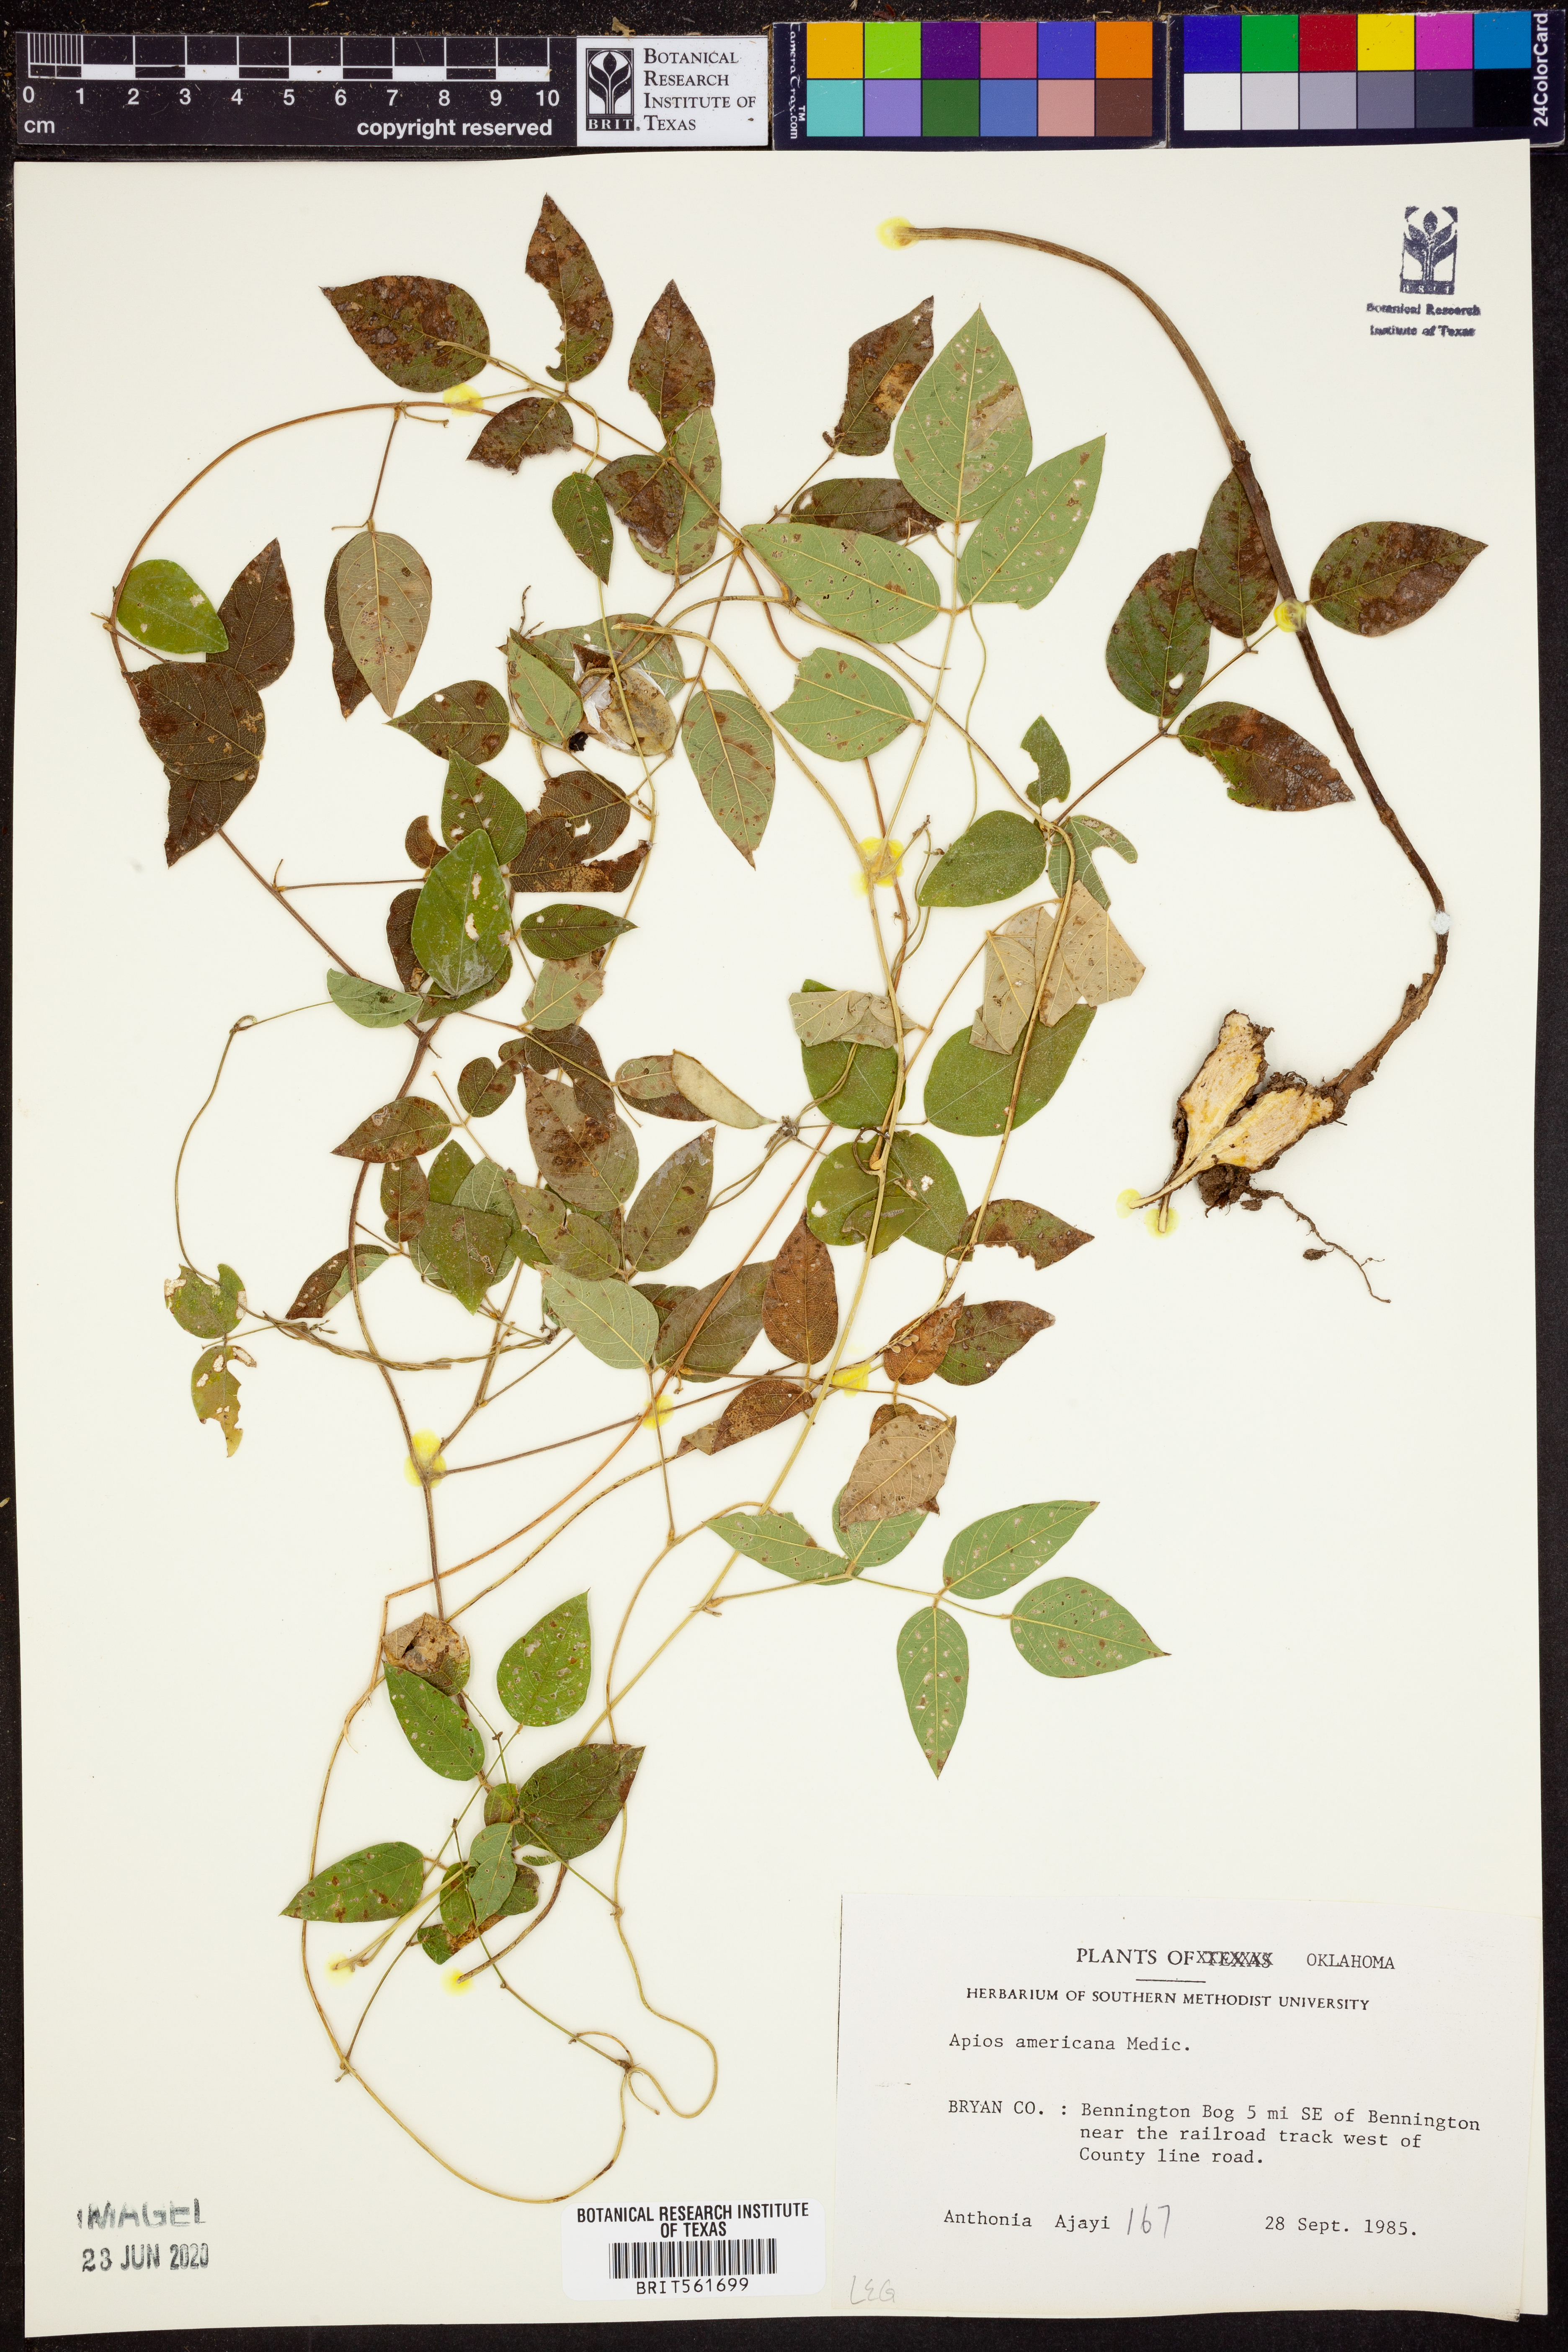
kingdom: Plantae
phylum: Tracheophyta
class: Magnoliopsida
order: Fabales
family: Fabaceae
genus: Apios
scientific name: Apios americana
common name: American potato-bean
